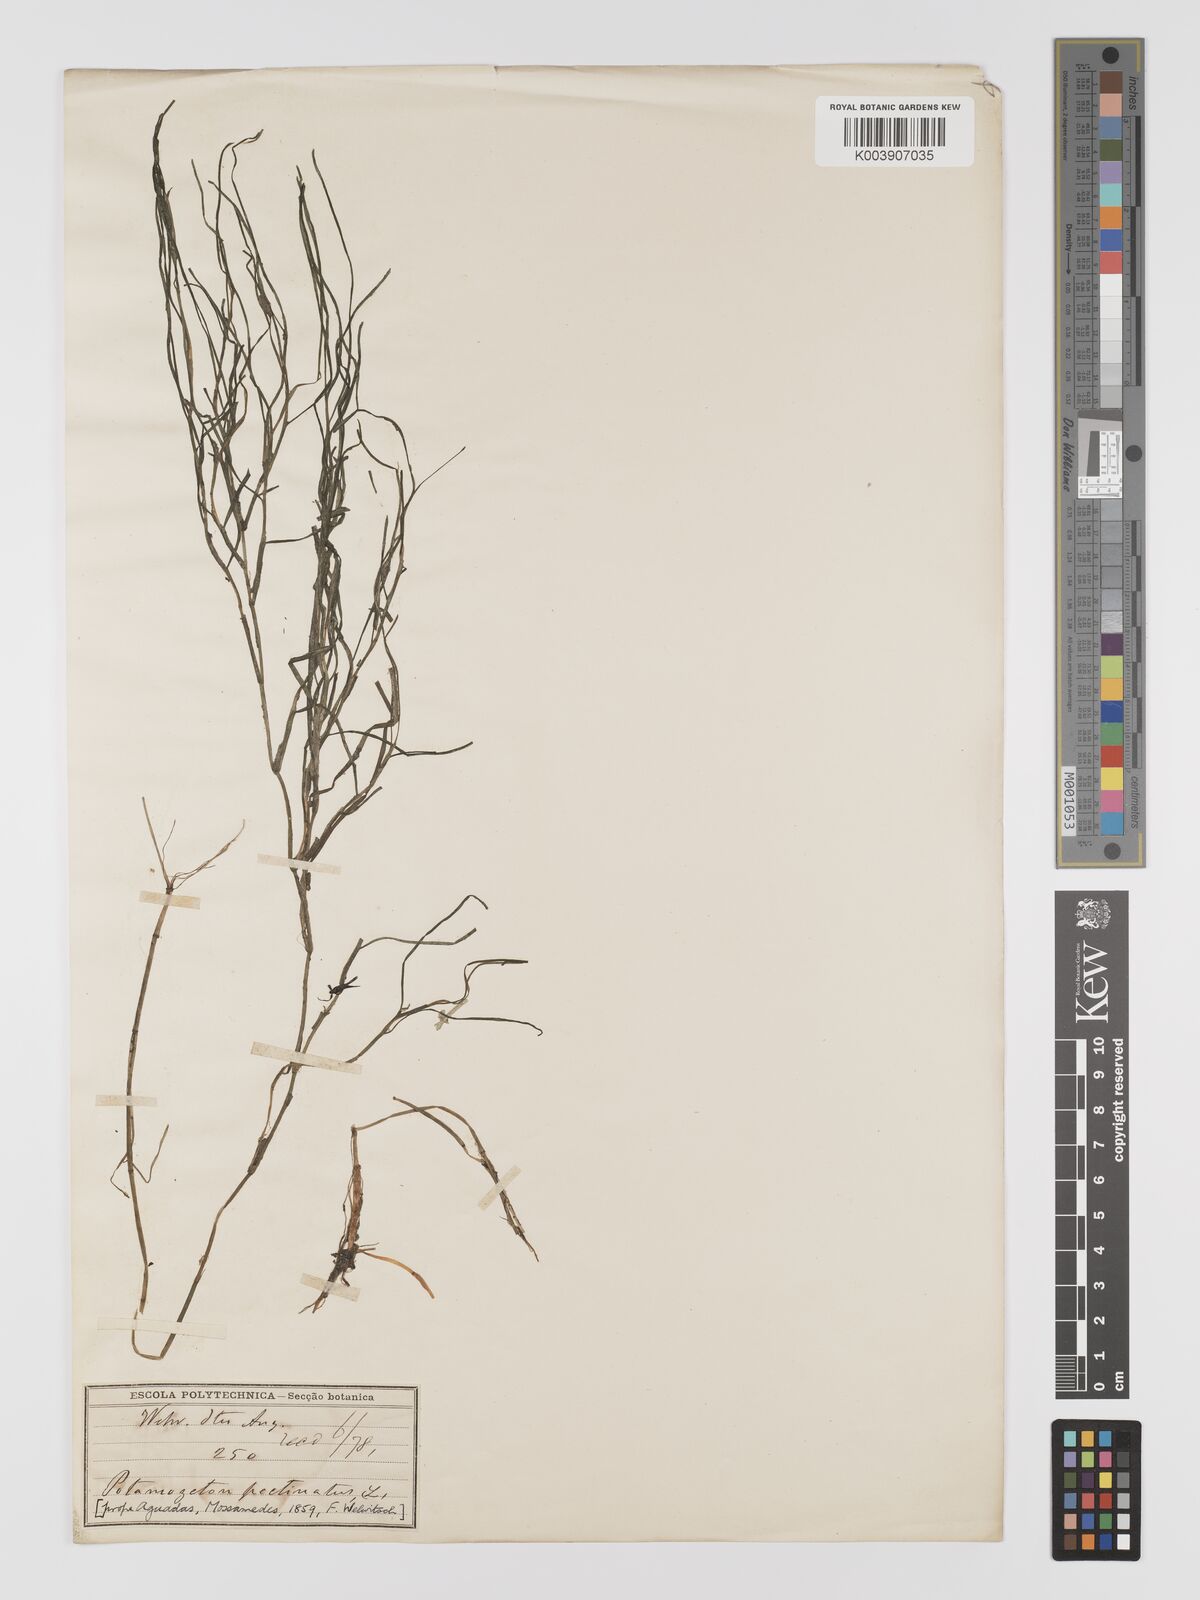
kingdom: Plantae
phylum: Tracheophyta
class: Liliopsida
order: Alismatales
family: Potamogetonaceae
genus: Stuckenia
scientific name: Stuckenia pectinata
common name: Sago pondweed
